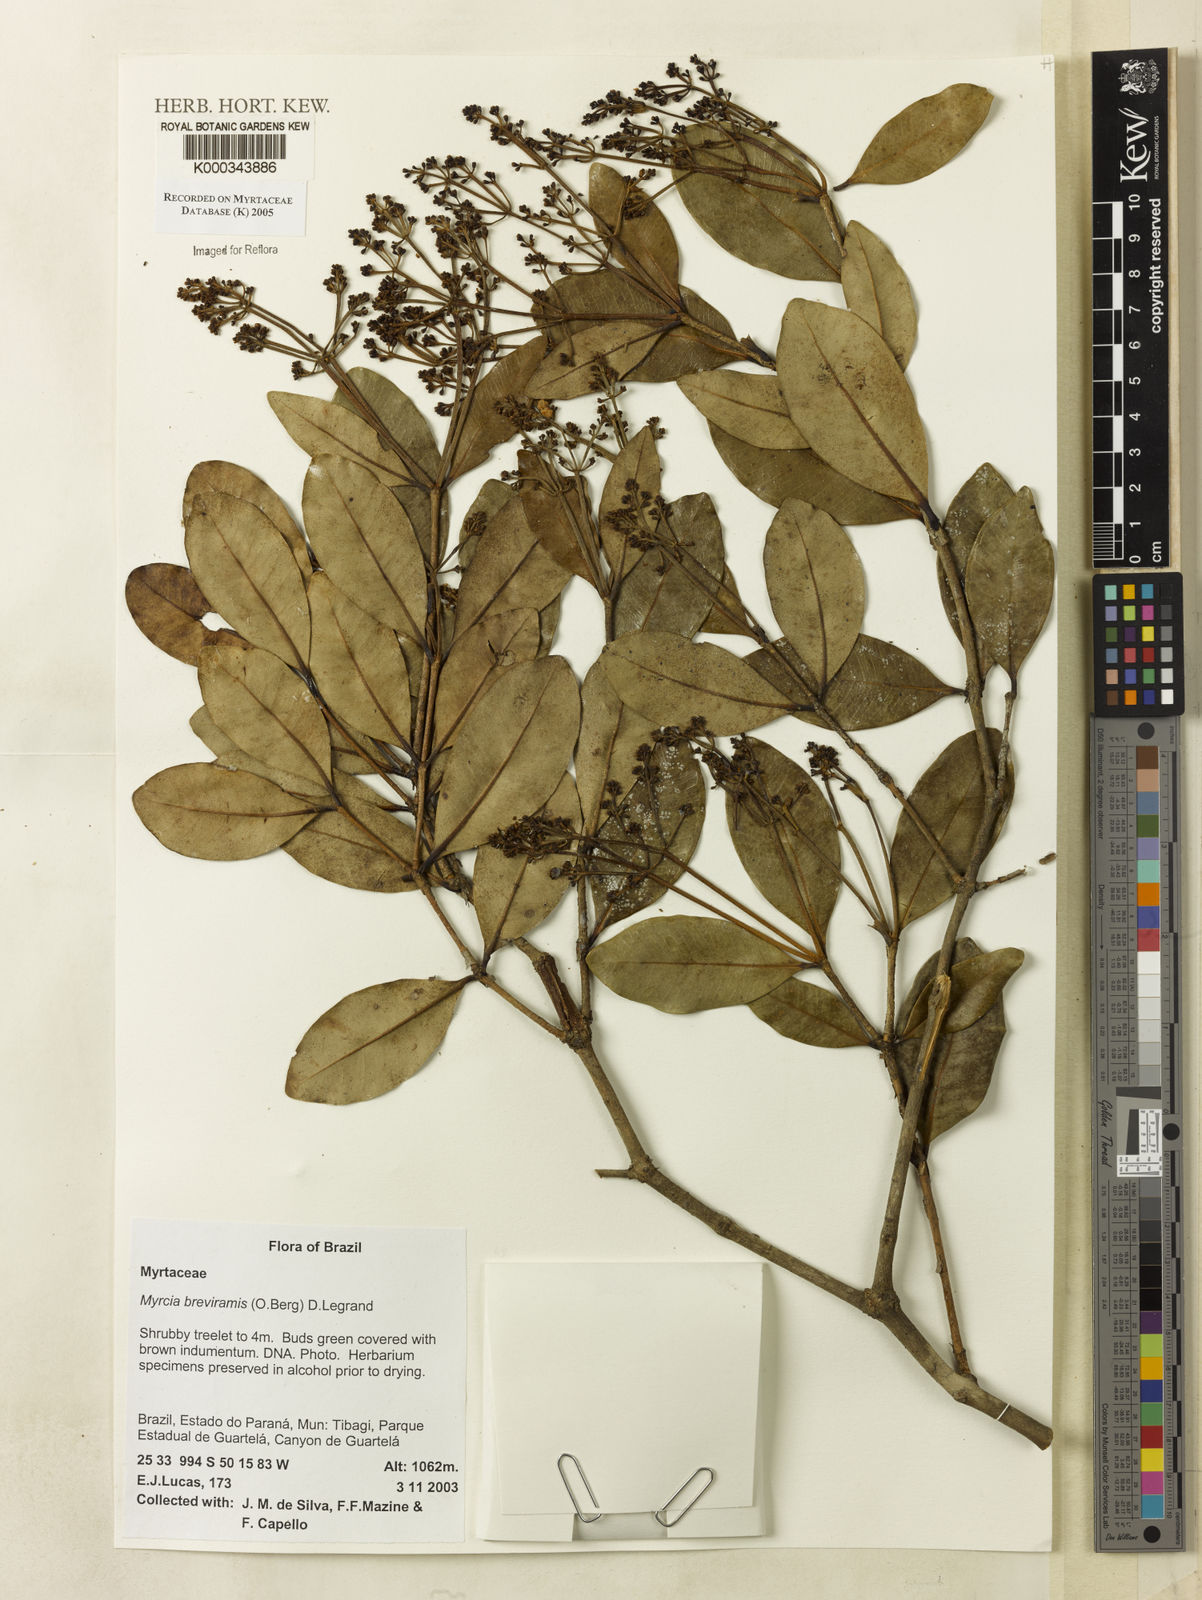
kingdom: Plantae
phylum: Tracheophyta
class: Magnoliopsida
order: Myrtales
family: Myrtaceae
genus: Myrcia
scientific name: Myrcia pulchra
